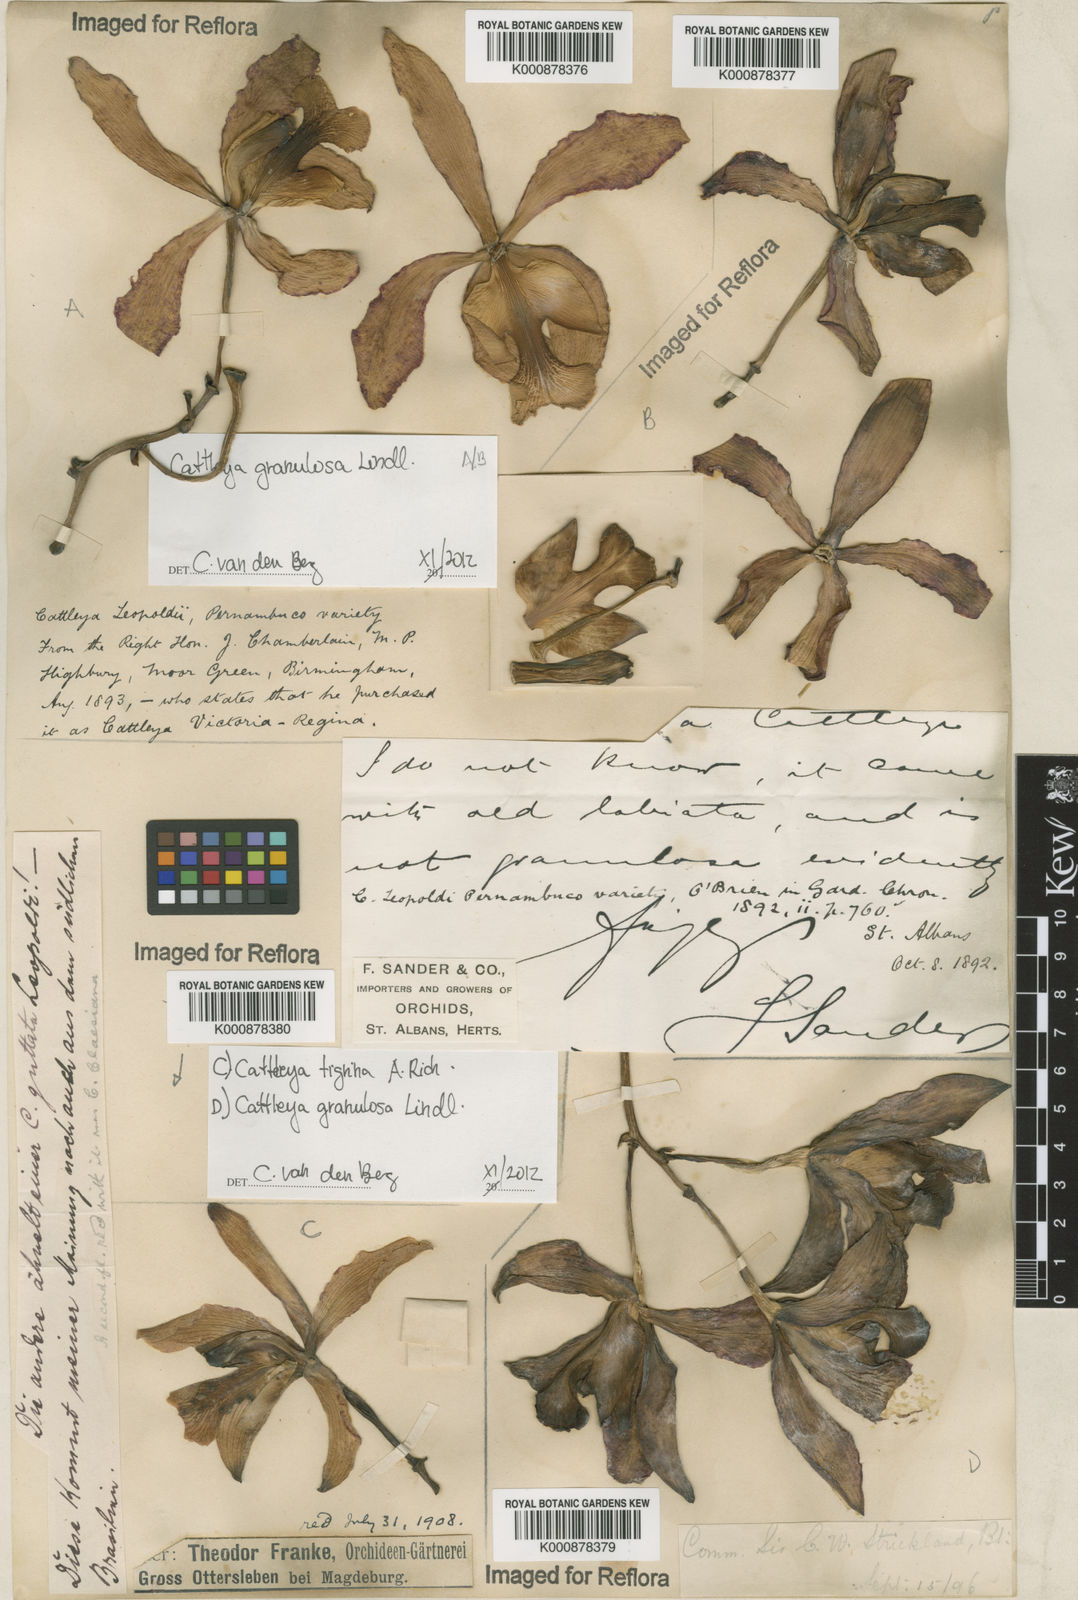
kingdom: Plantae
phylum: Tracheophyta
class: Liliopsida
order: Asparagales
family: Orchidaceae
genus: Cattleya
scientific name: Cattleya granulosa
